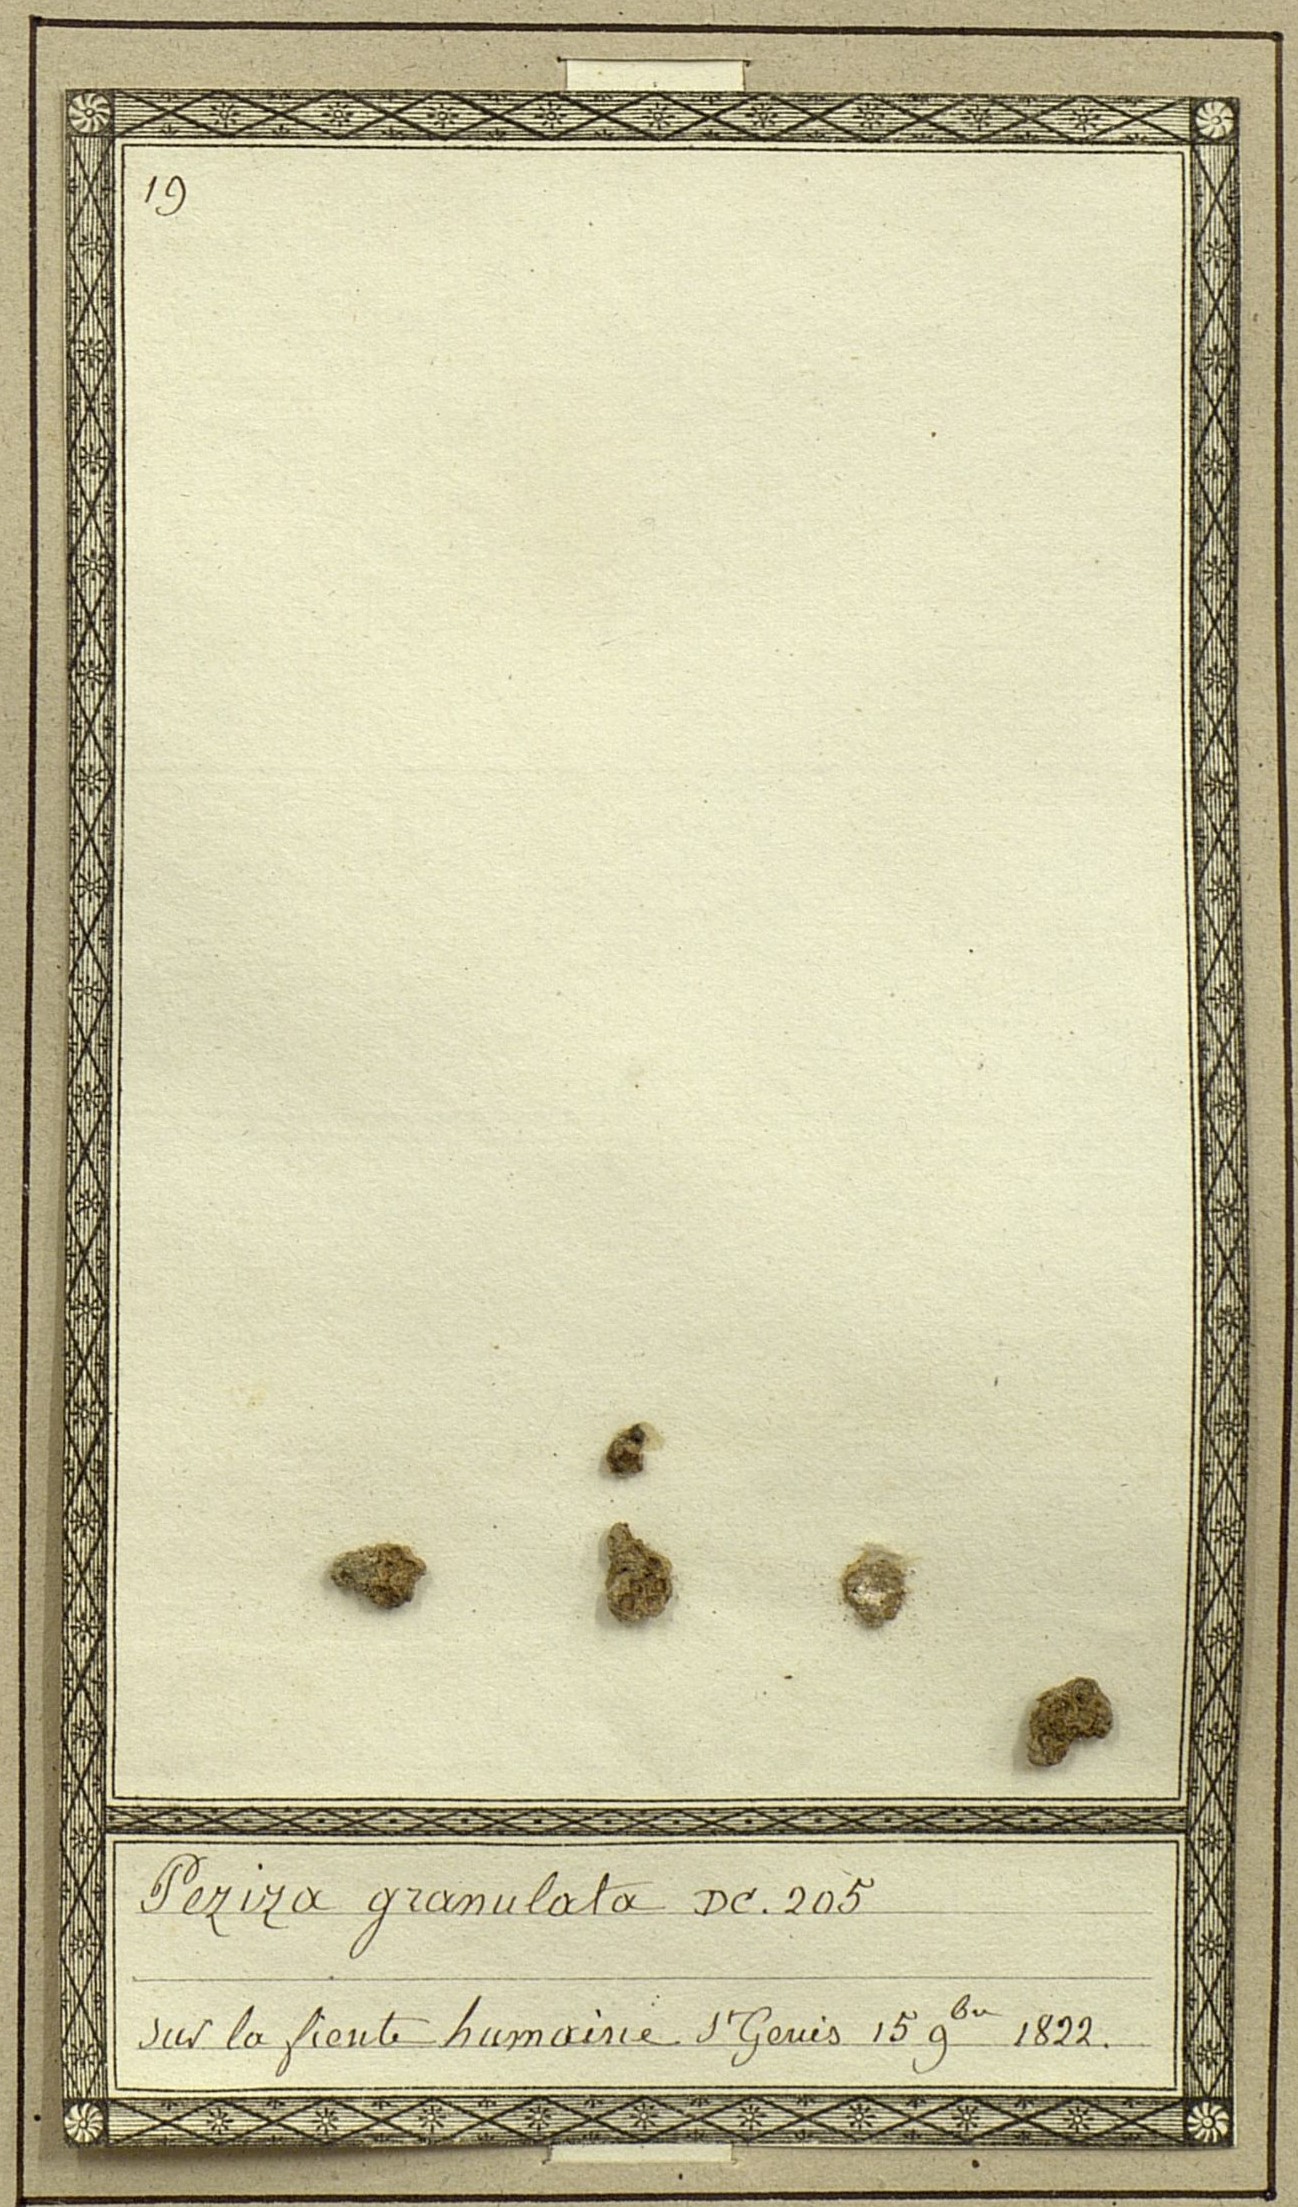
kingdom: Fungi
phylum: Ascomycota
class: Pezizomycetes
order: Pezizales
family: Pezizaceae
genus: Galactinia
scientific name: Galactinia granulosa
